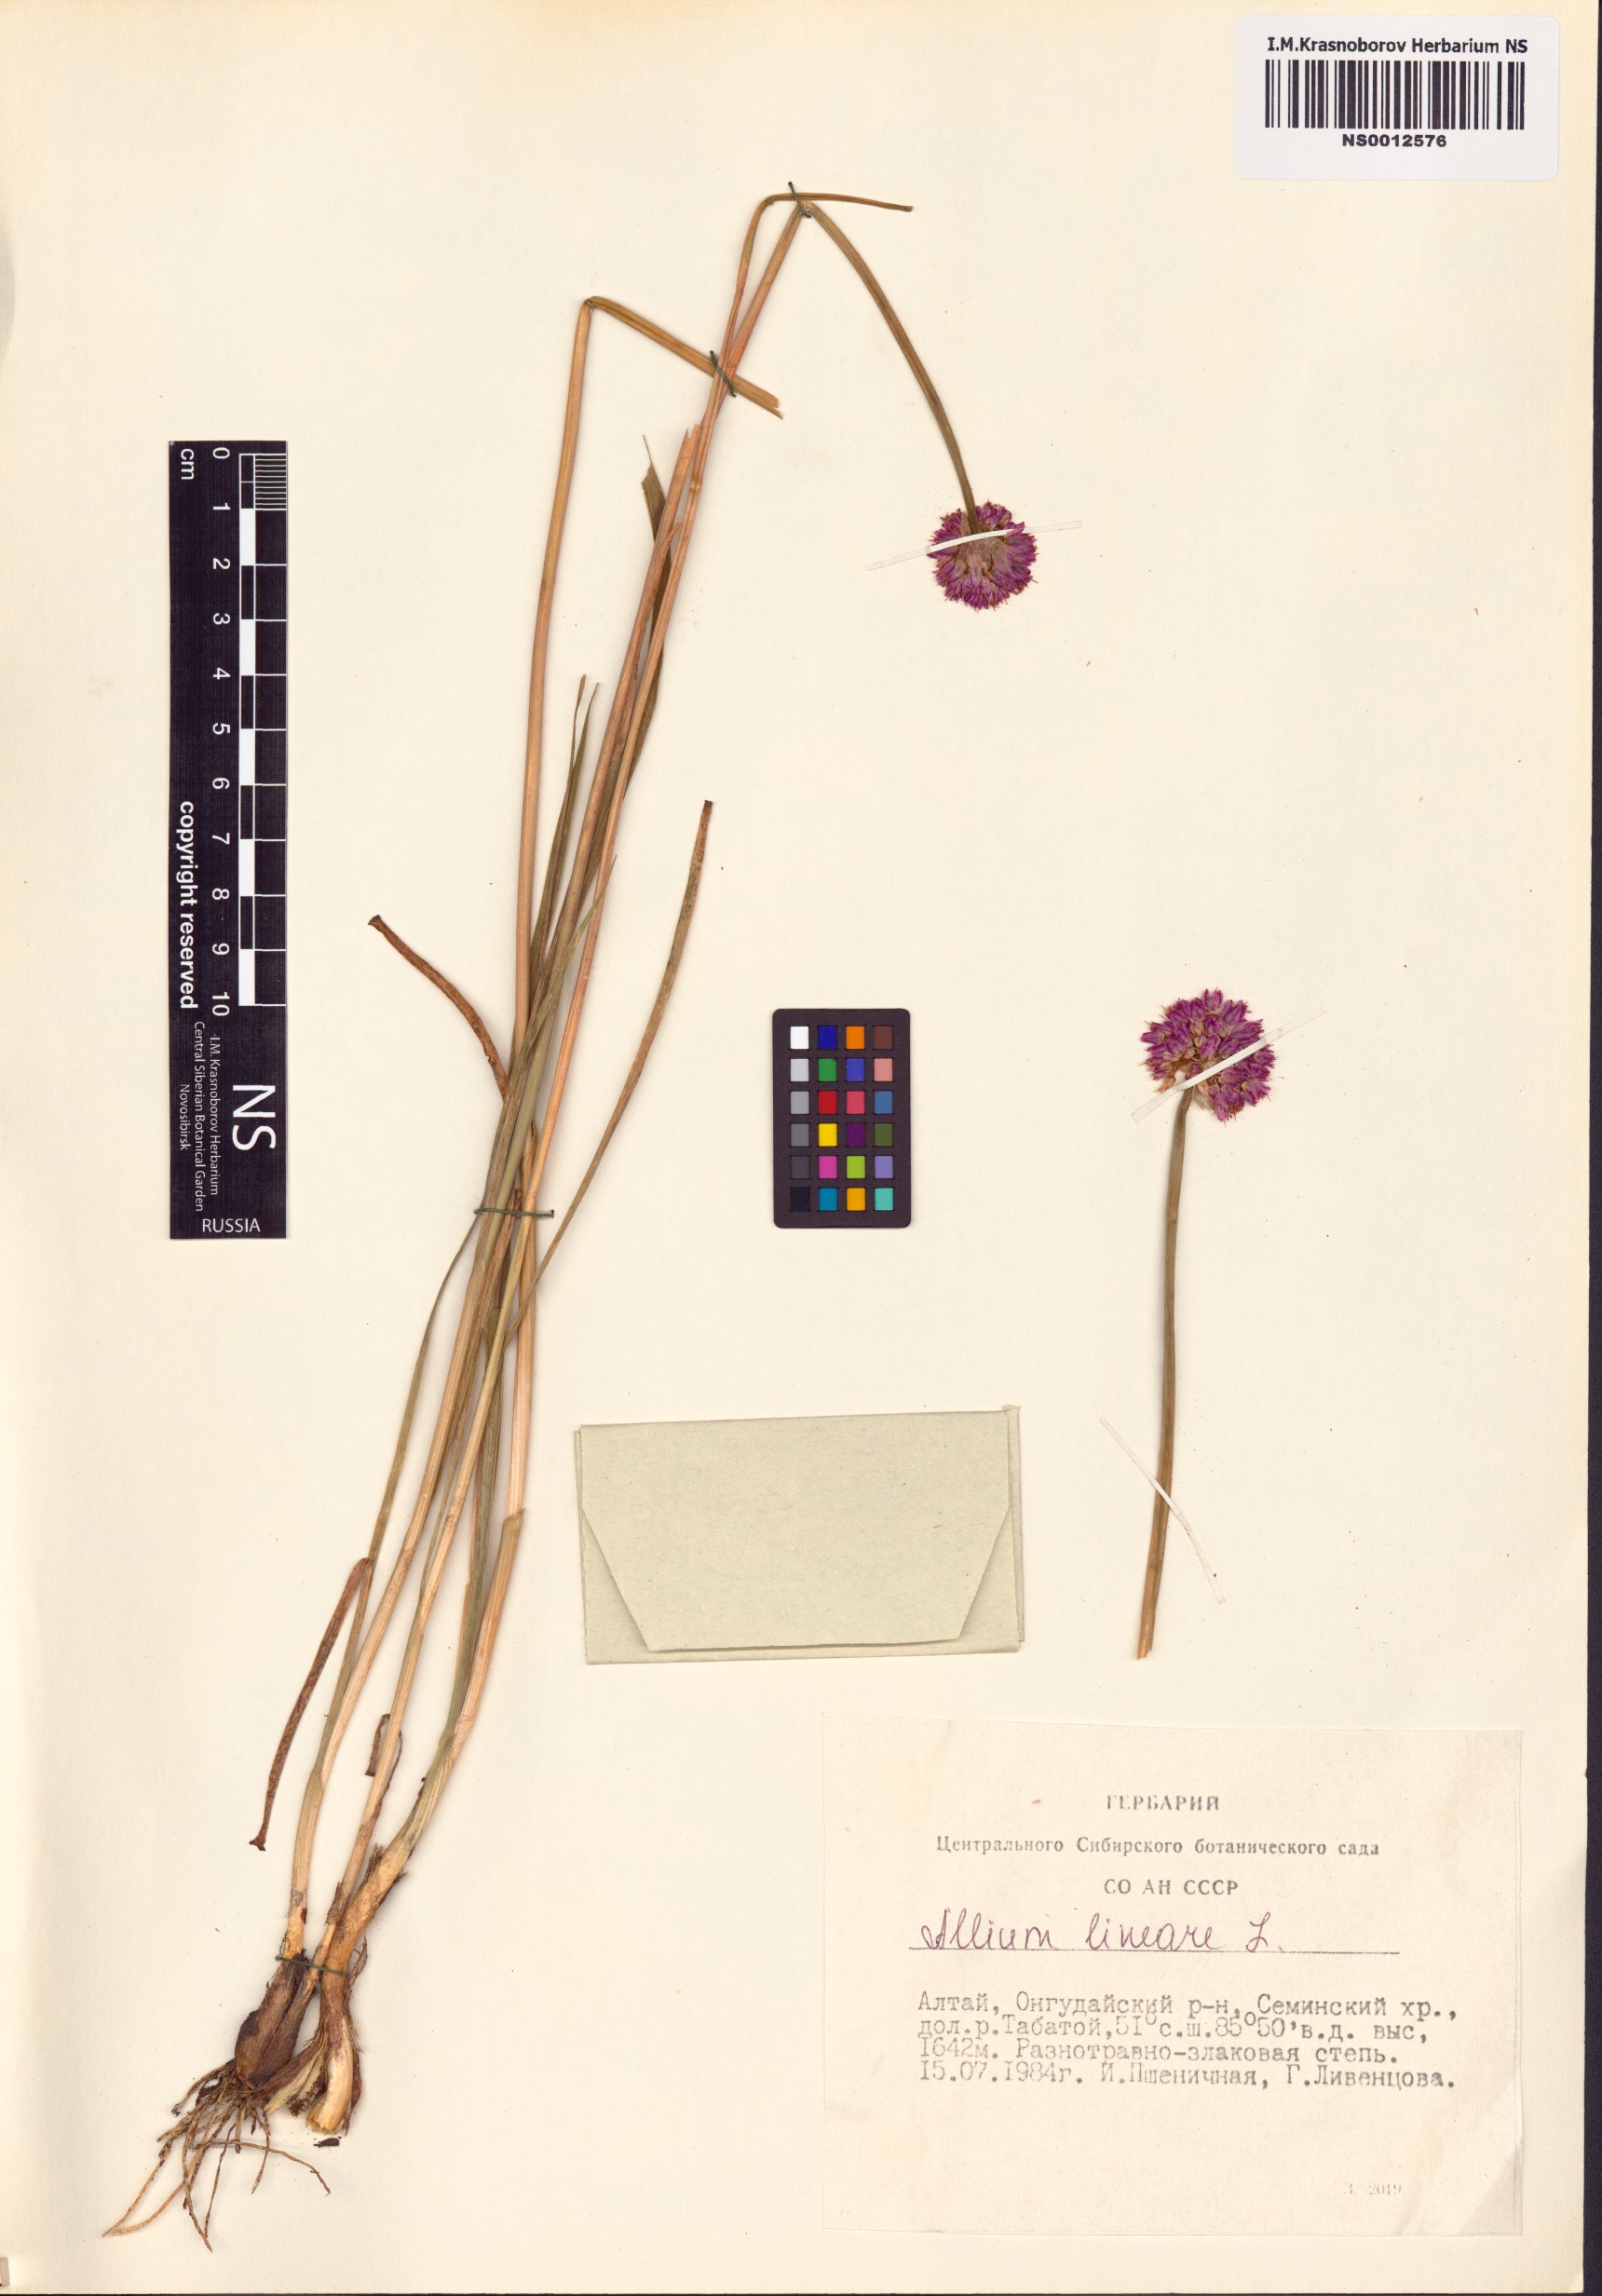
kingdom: Plantae
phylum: Tracheophyta
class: Liliopsida
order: Asparagales
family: Amaryllidaceae
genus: Allium
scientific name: Allium lineare
